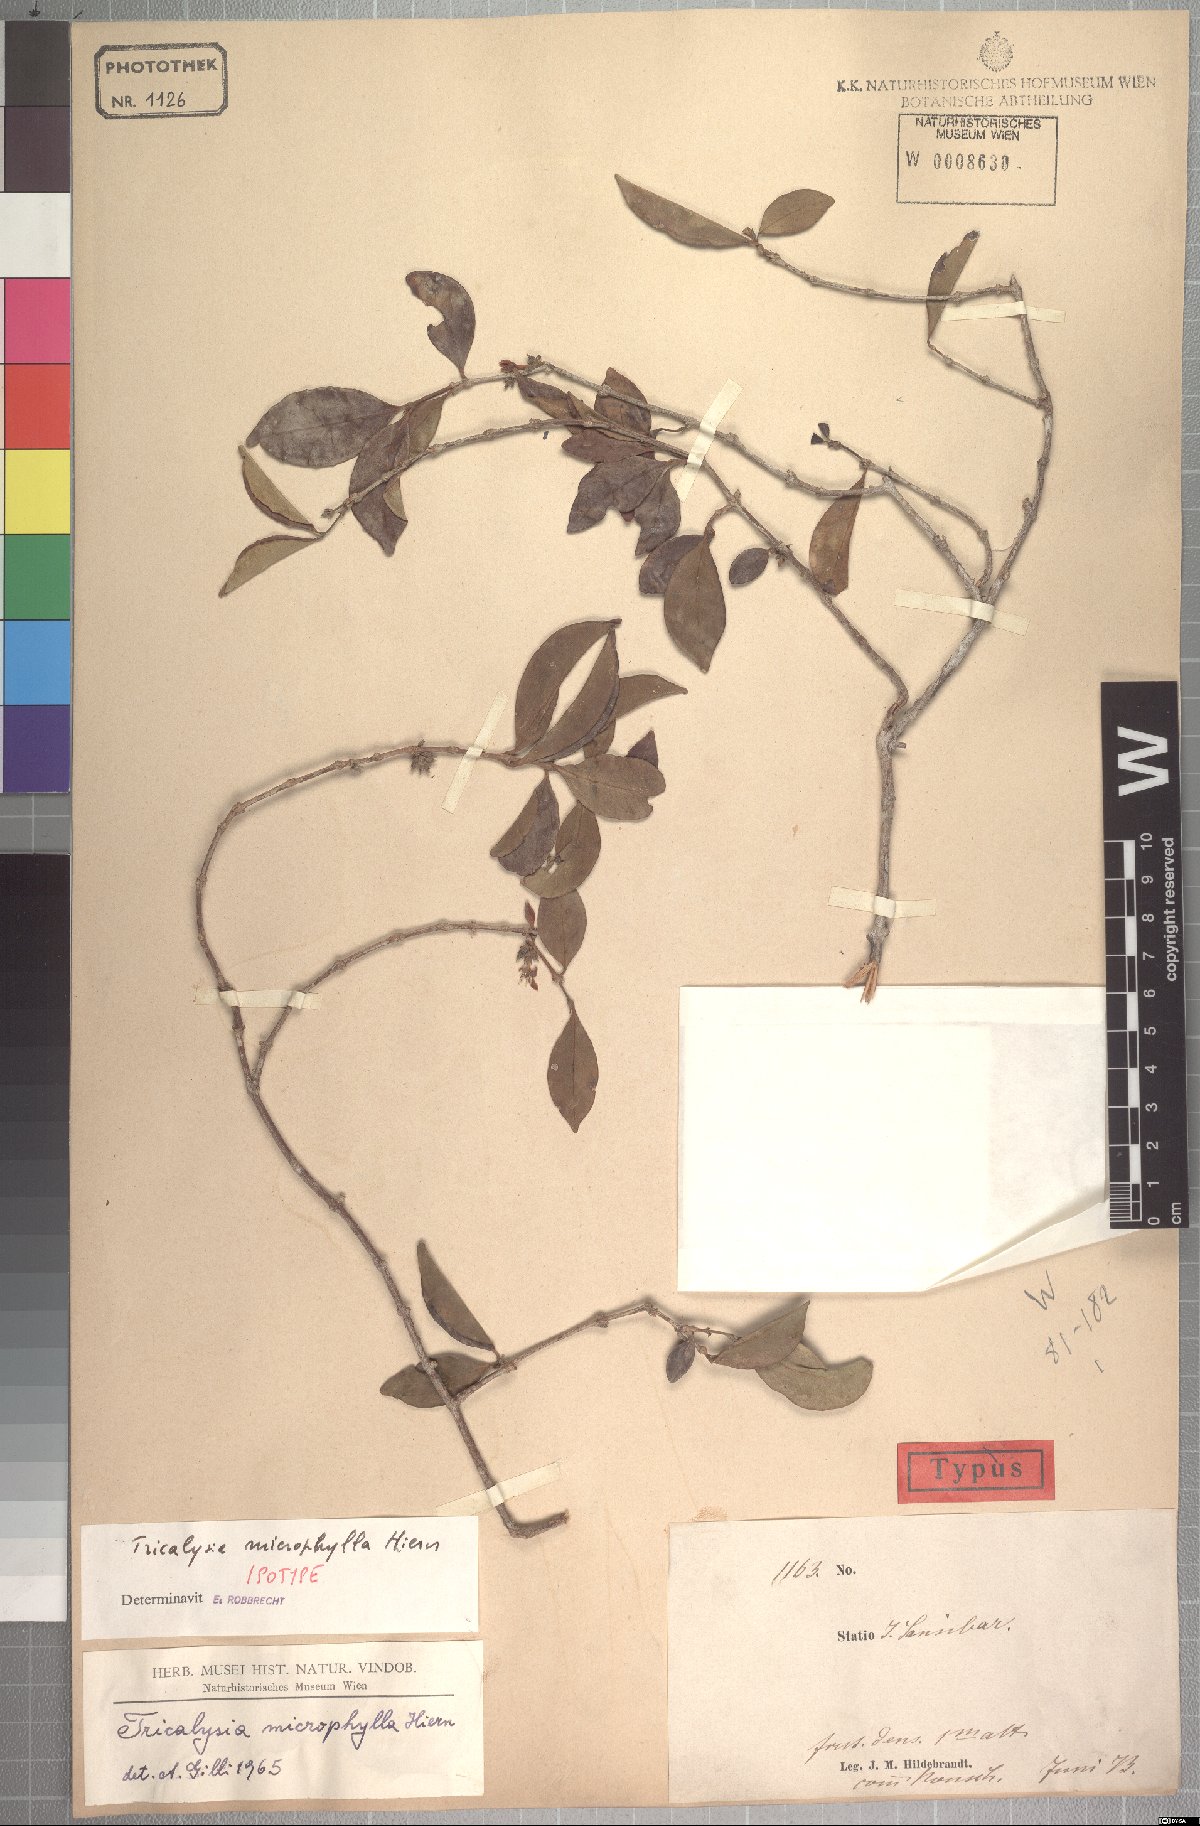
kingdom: Plantae
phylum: Tracheophyta
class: Magnoliopsida
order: Gentianales
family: Rubiaceae
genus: Tricalysia
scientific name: Tricalysia microphylla
